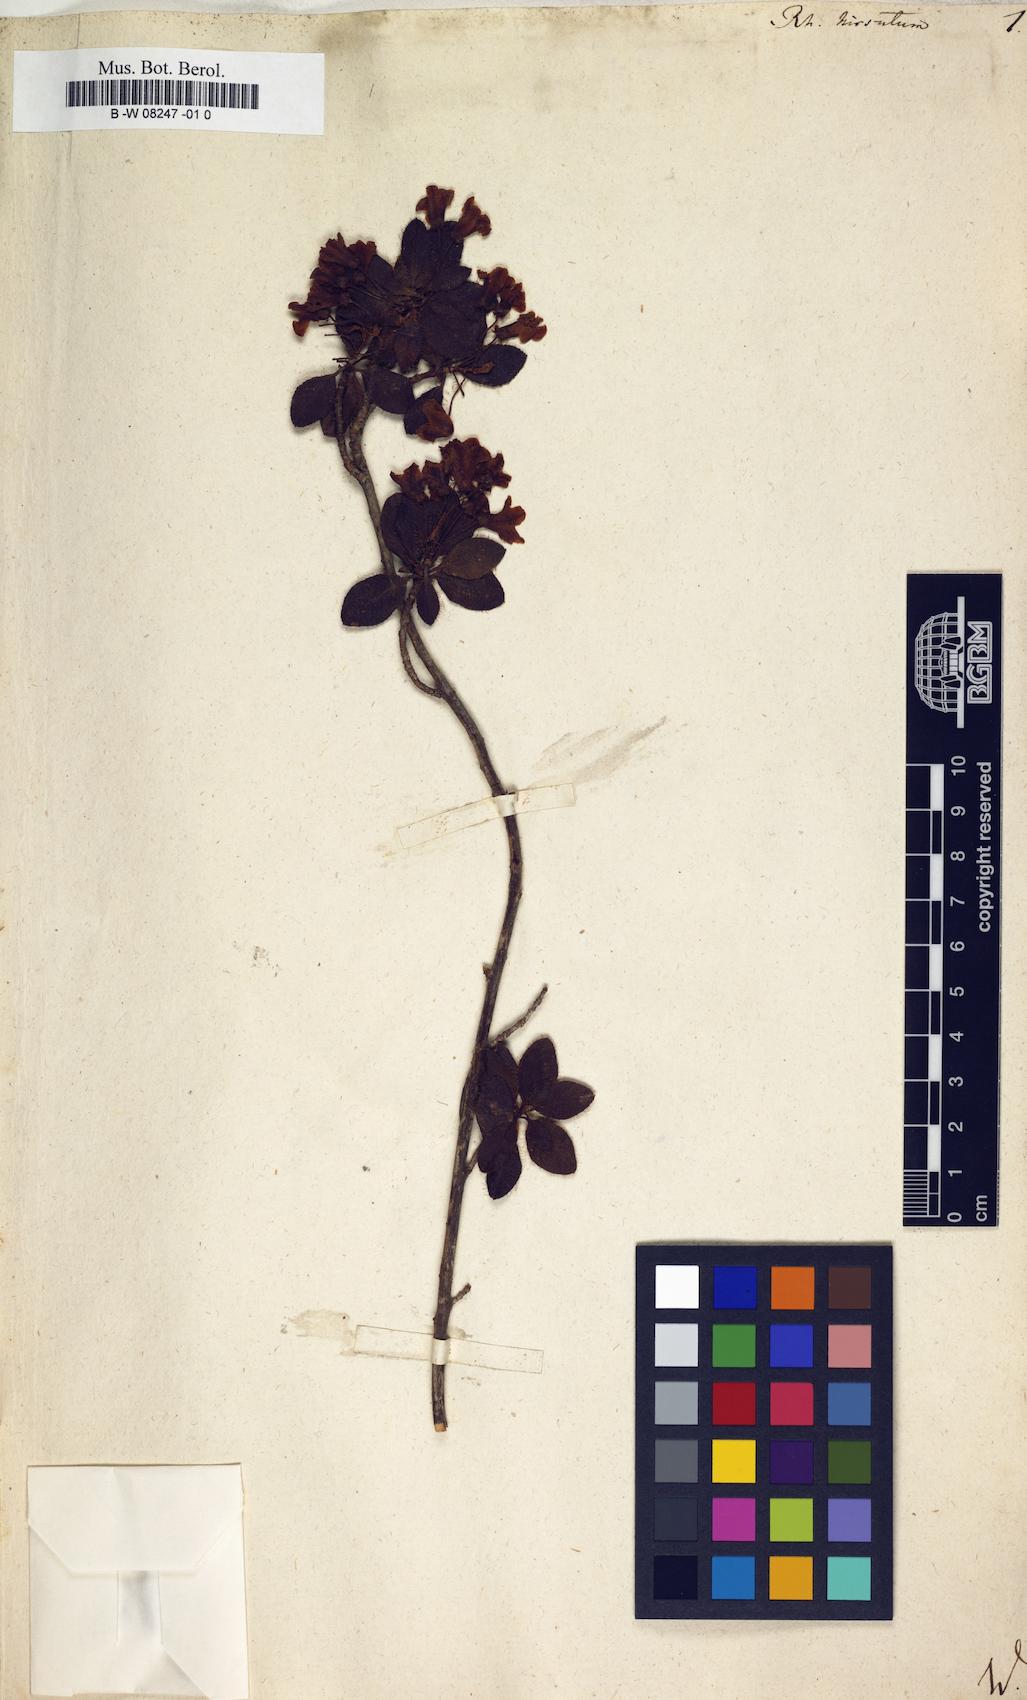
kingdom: Plantae
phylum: Tracheophyta
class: Magnoliopsida
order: Ericales
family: Ericaceae
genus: Rhododendron
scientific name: Rhododendron hirsutum
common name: Hairy alpenrose
